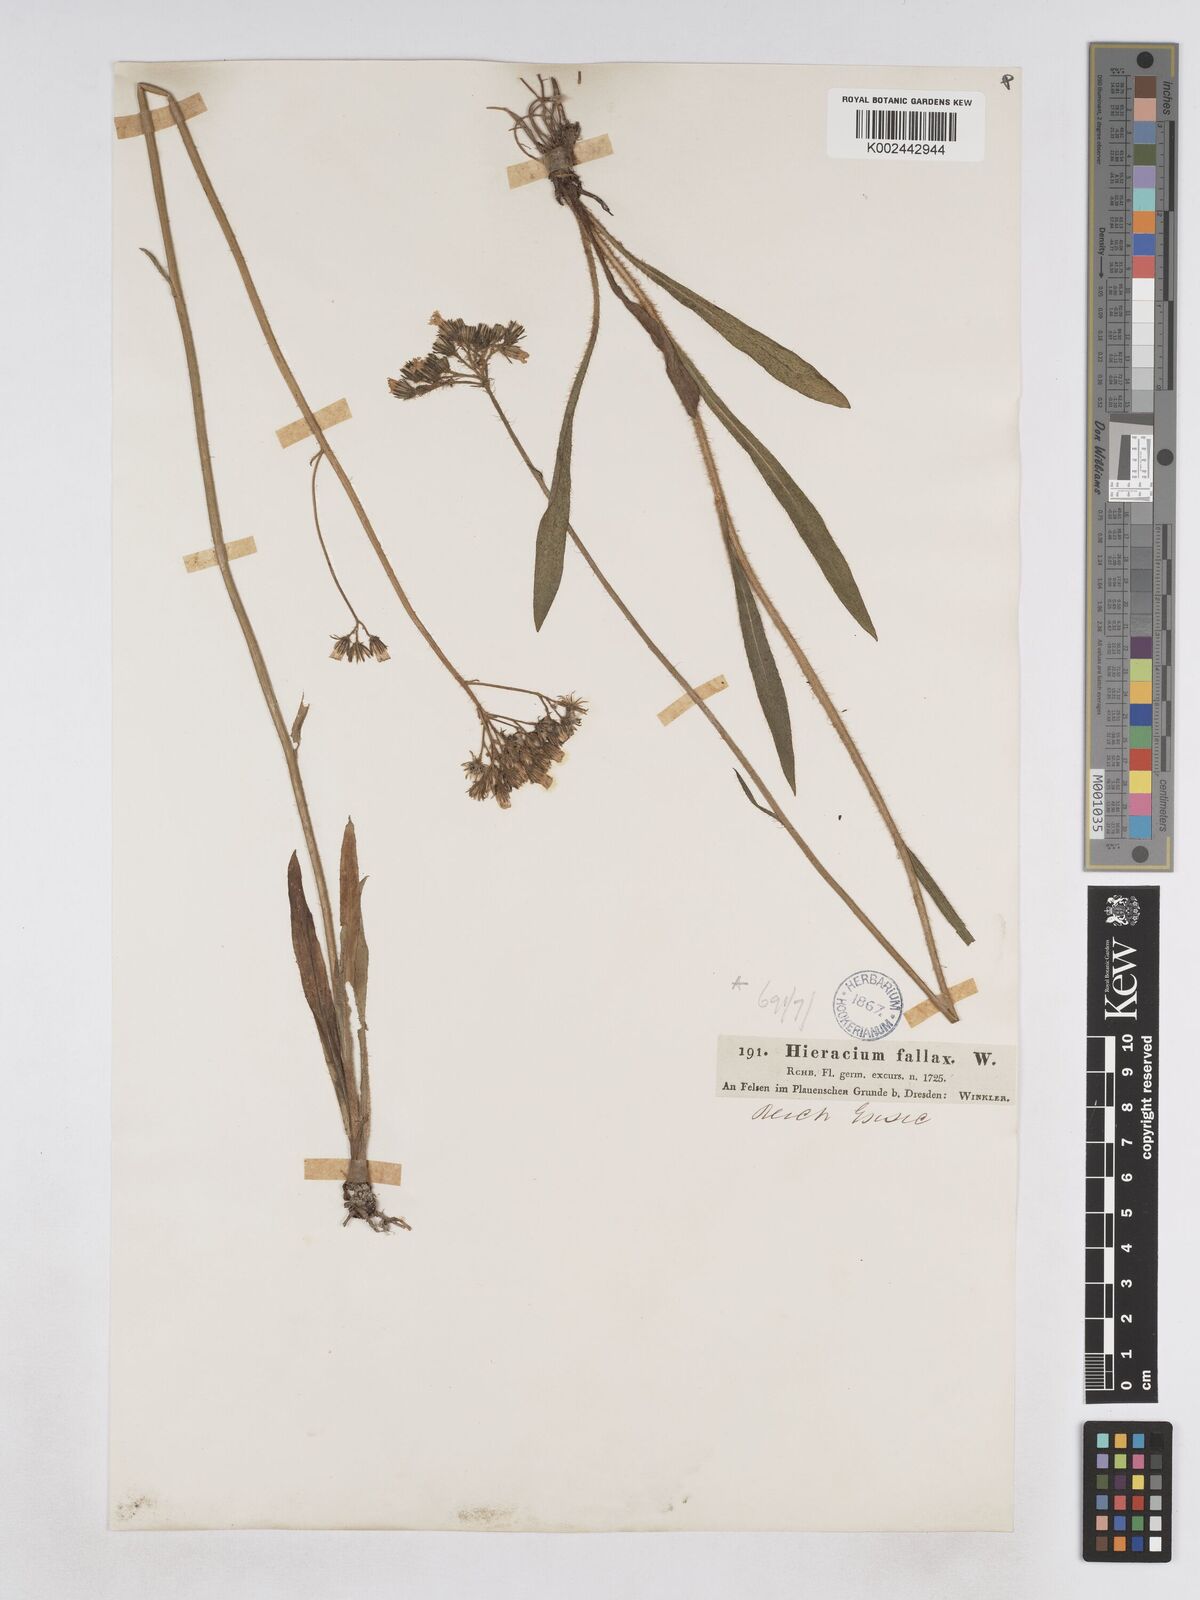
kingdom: Plantae
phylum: Tracheophyta
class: Magnoliopsida
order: Asterales
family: Asteraceae
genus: Pilosella
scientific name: Pilosella fallax
